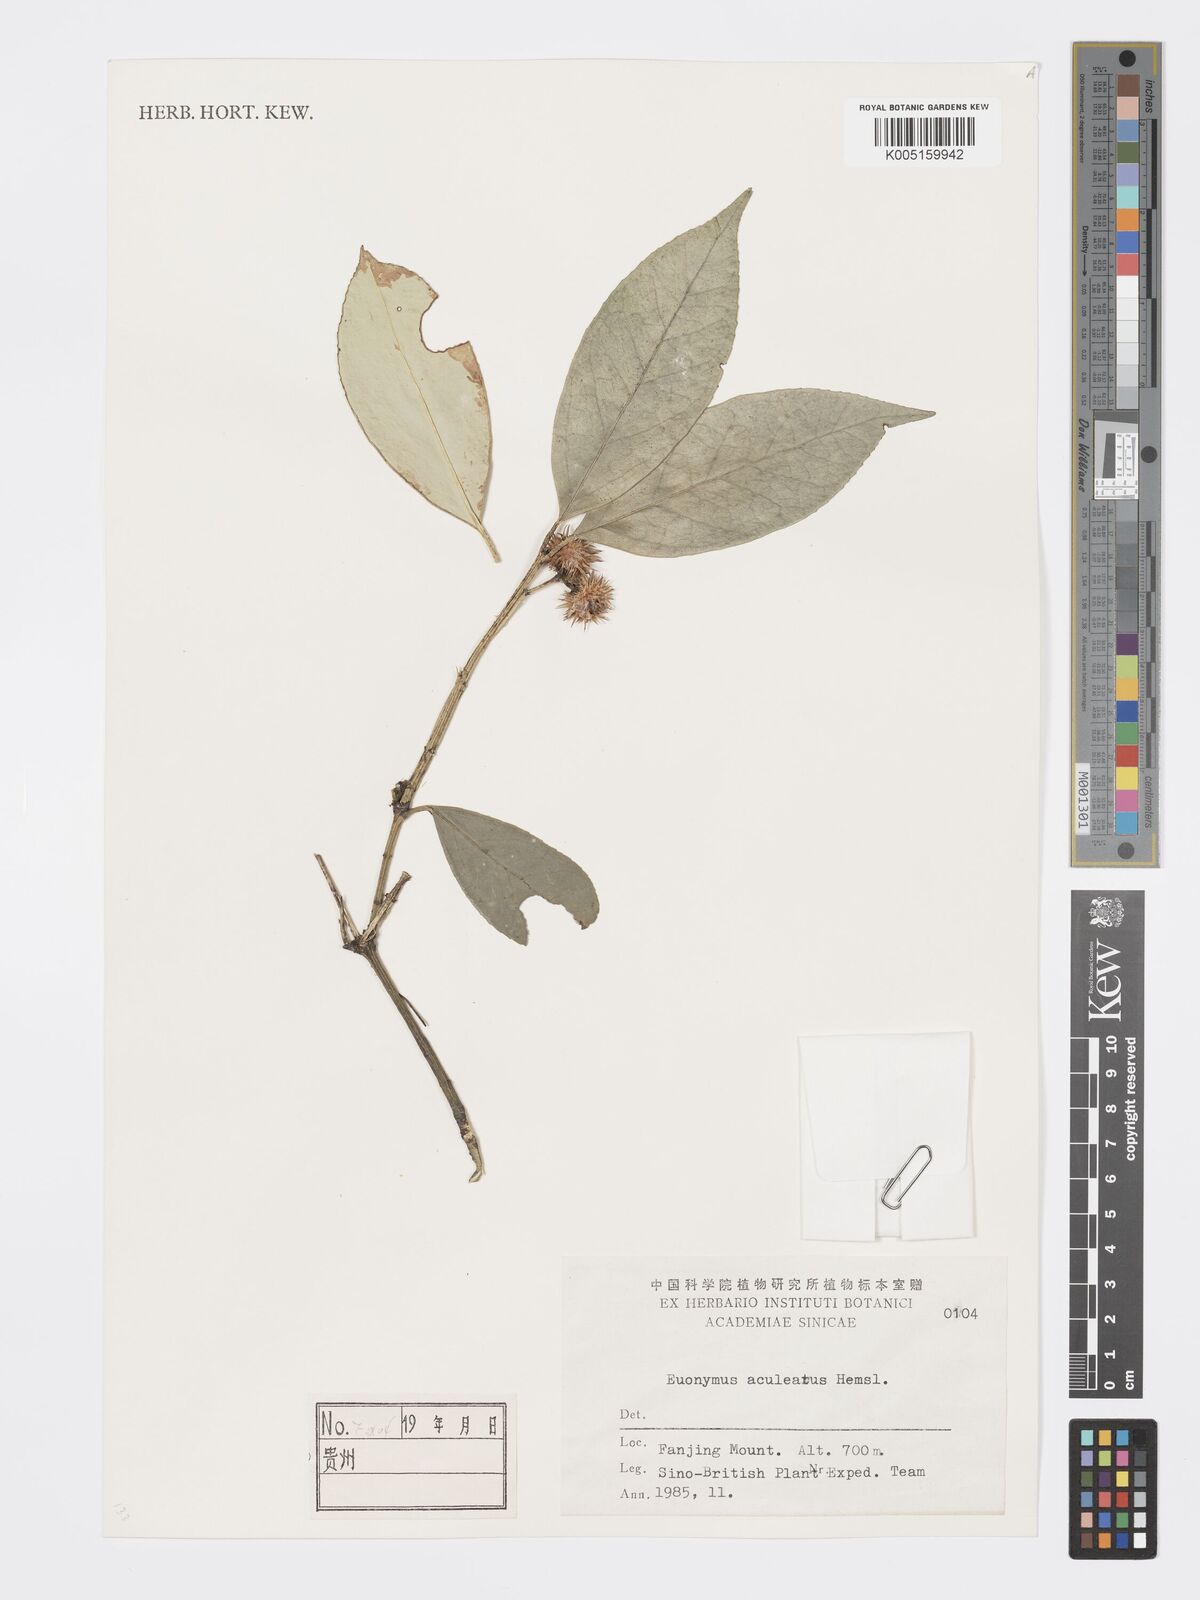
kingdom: Plantae
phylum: Tracheophyta
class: Magnoliopsida
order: Celastrales
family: Celastraceae
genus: Euonymus
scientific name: Euonymus aculeatus
